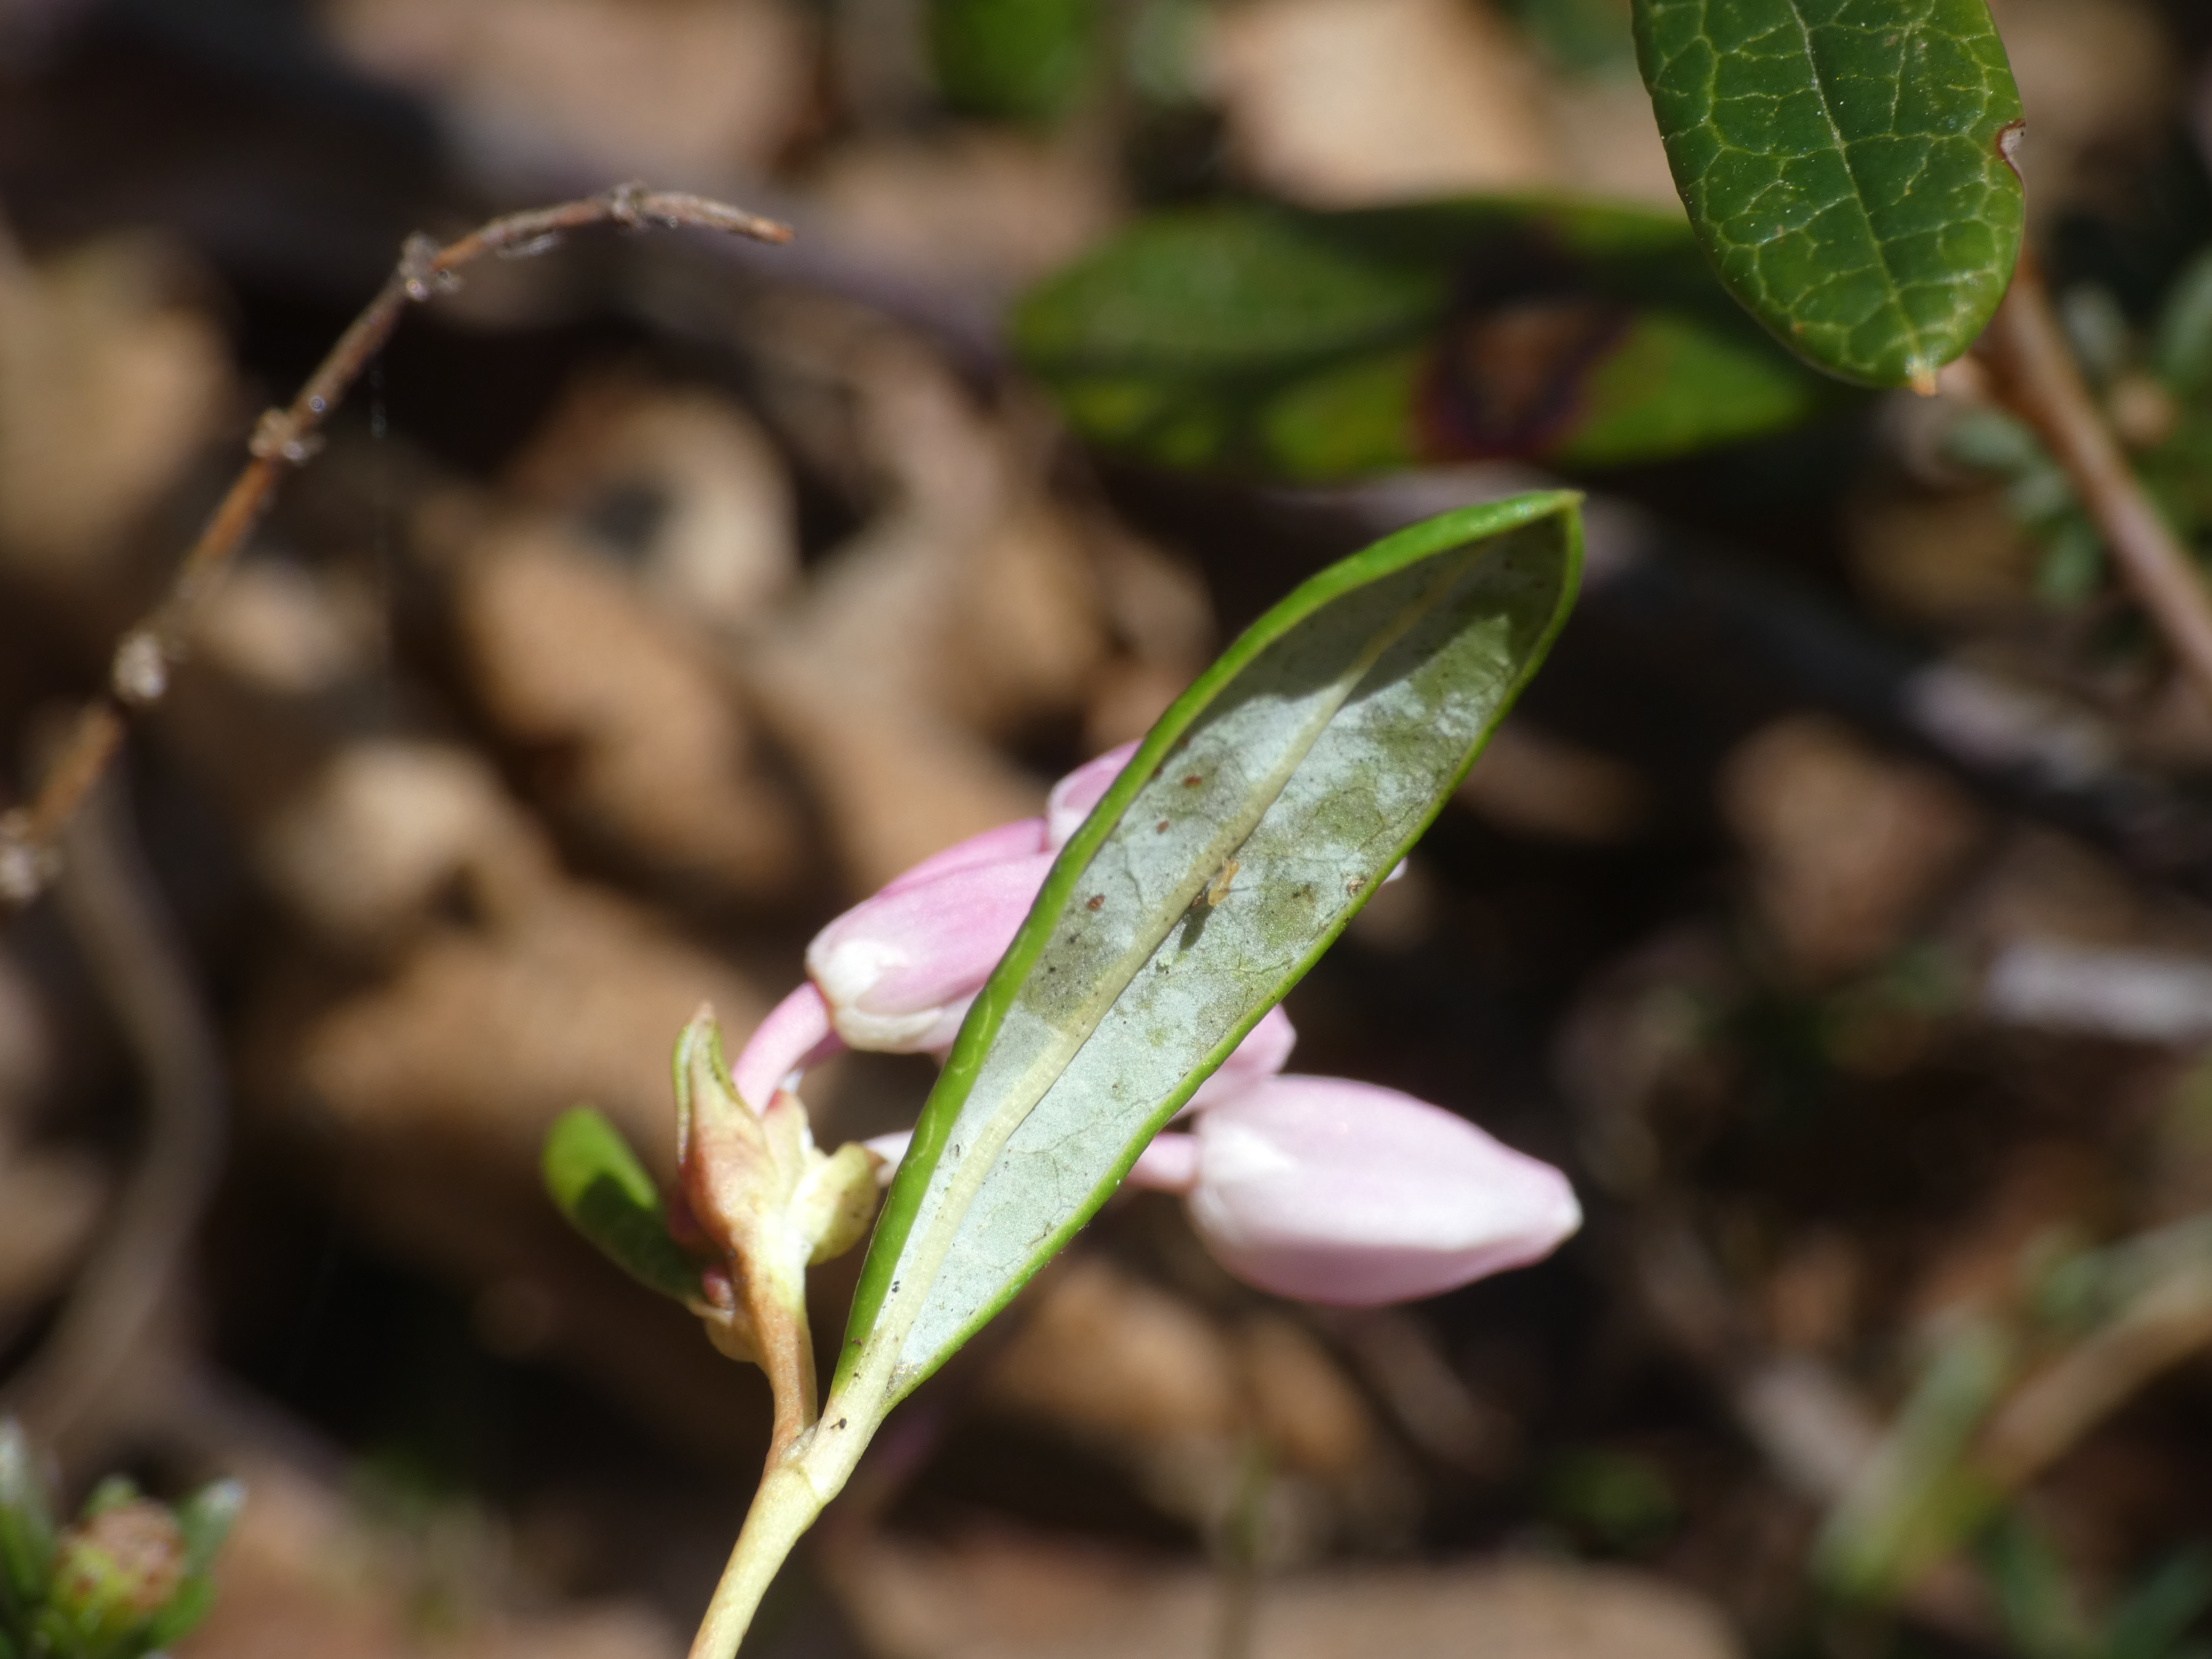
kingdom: Plantae
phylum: Tracheophyta
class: Magnoliopsida
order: Ericales
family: Ericaceae
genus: Andromeda
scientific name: Andromeda polifolia
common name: Rosmarinlyng
